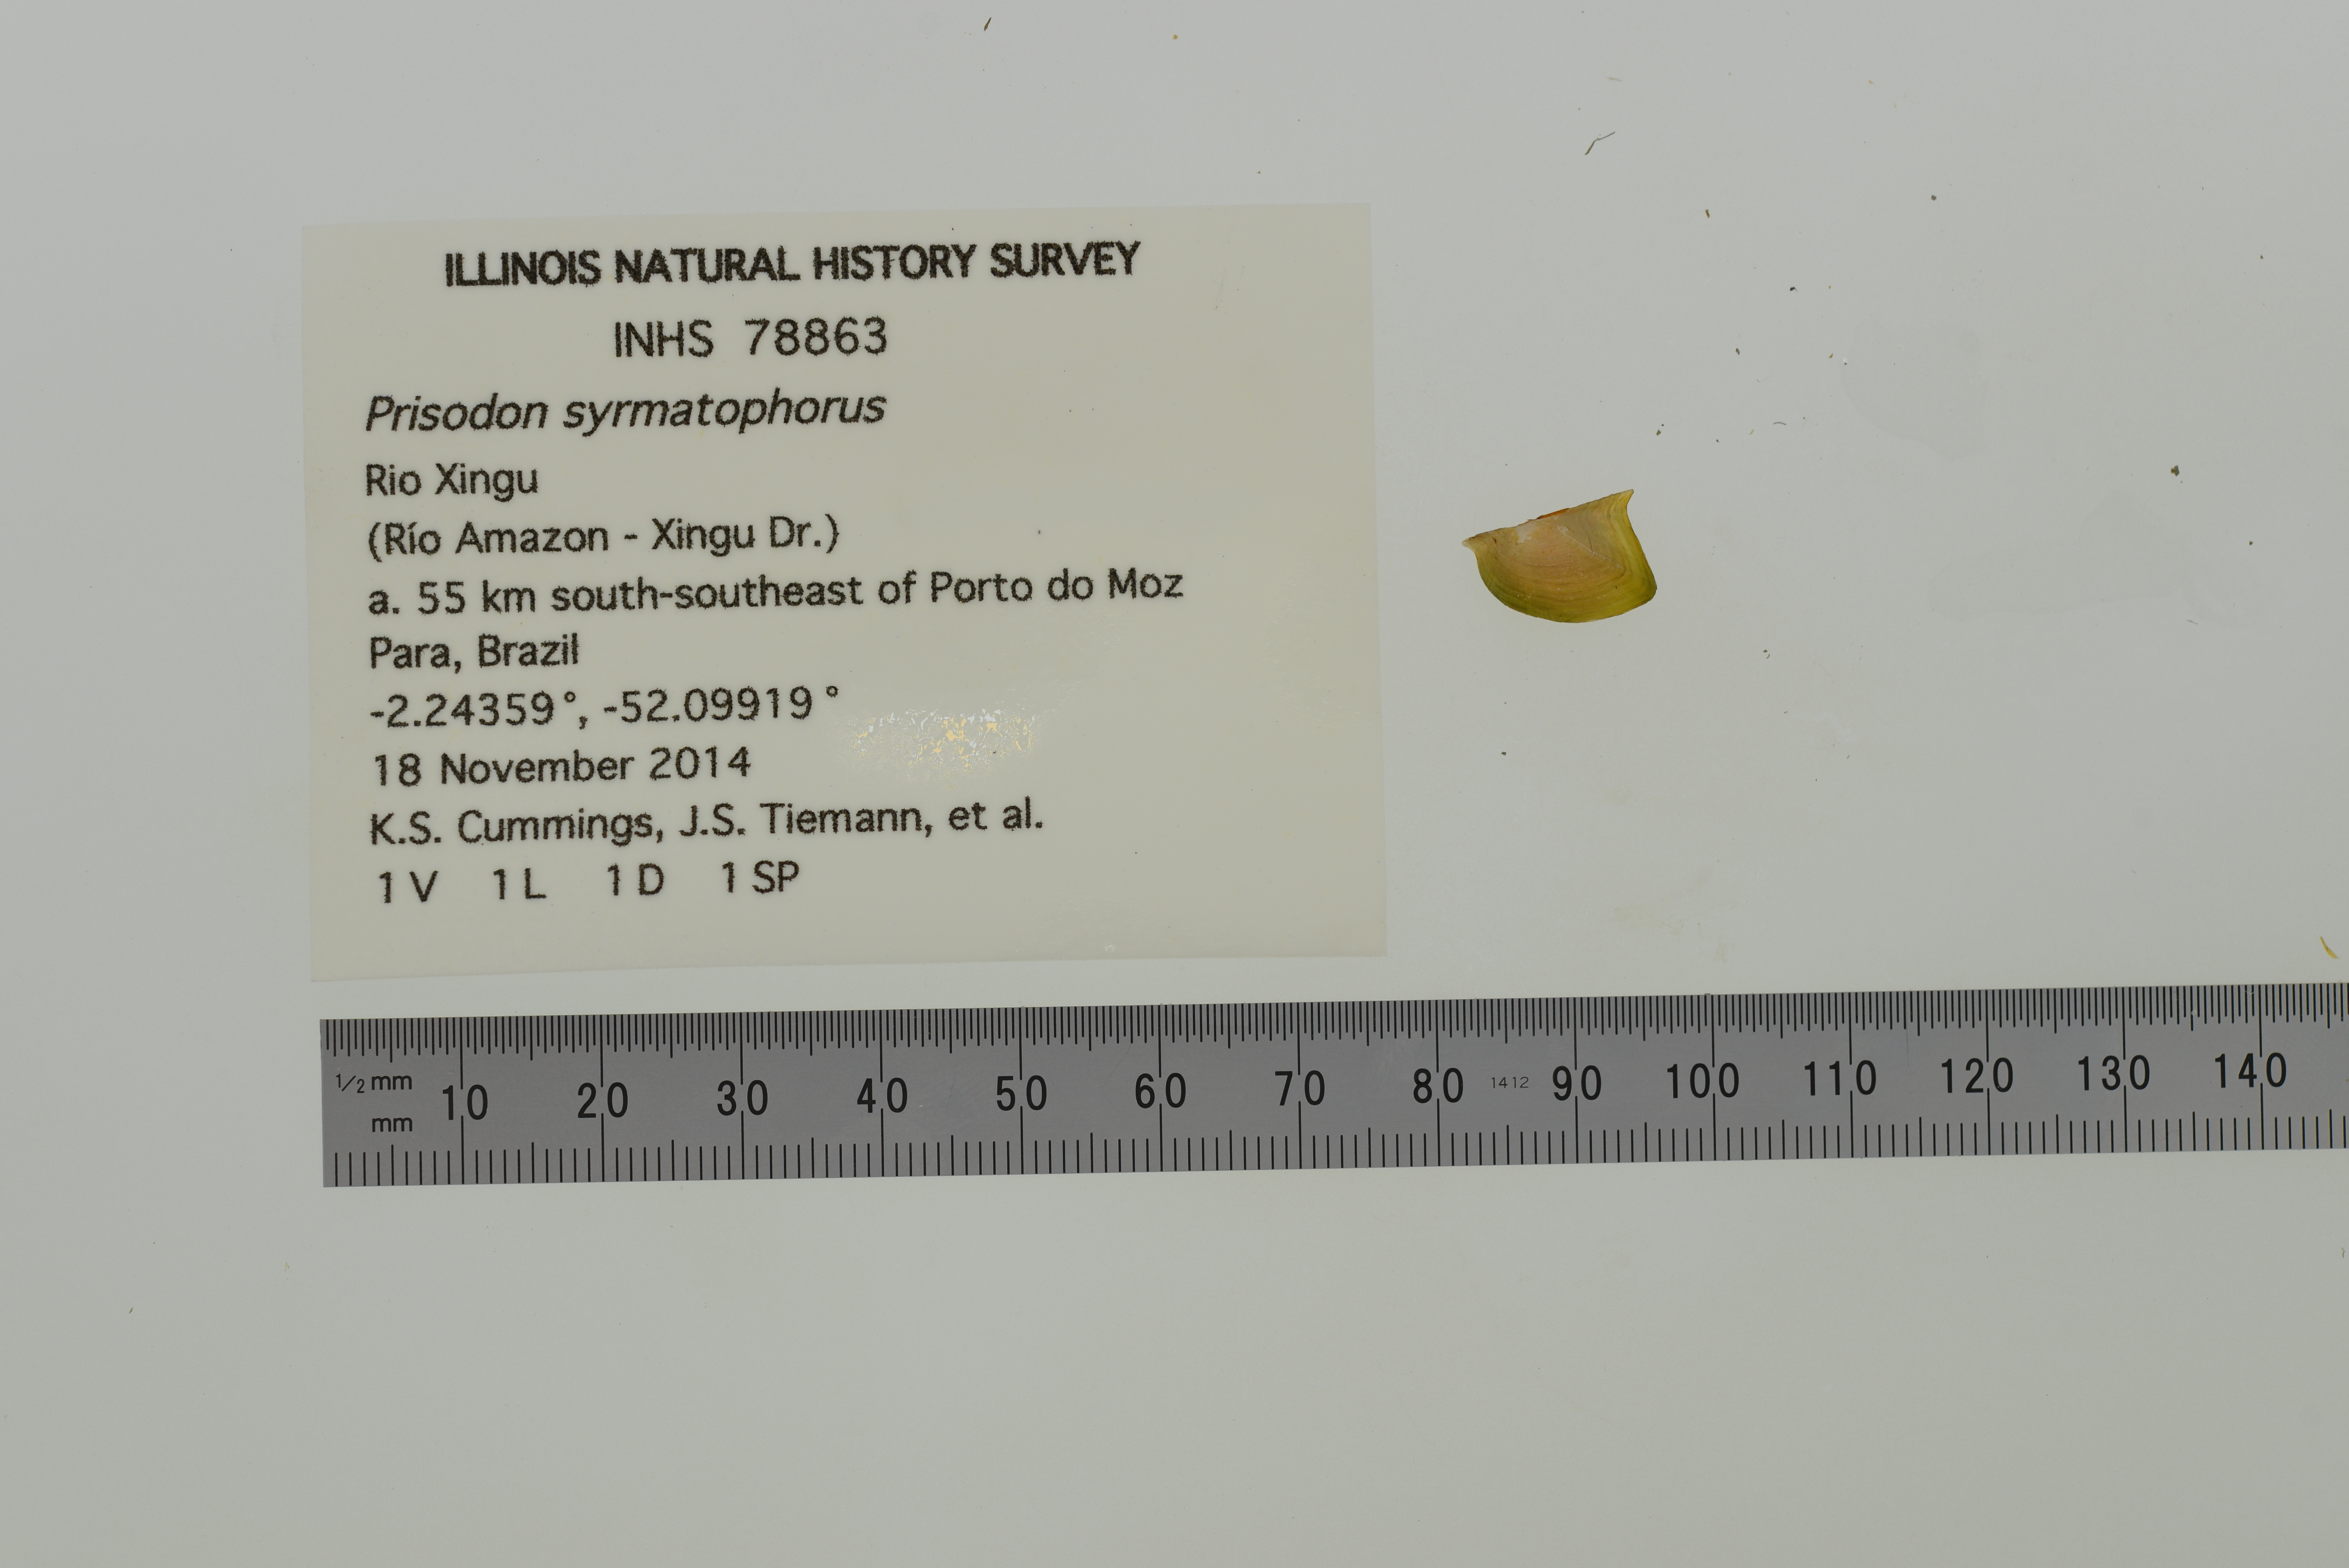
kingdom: Animalia
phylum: Mollusca
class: Bivalvia
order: Unionida
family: Hyriidae
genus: Prisodon
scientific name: Prisodon syrmatophorus
